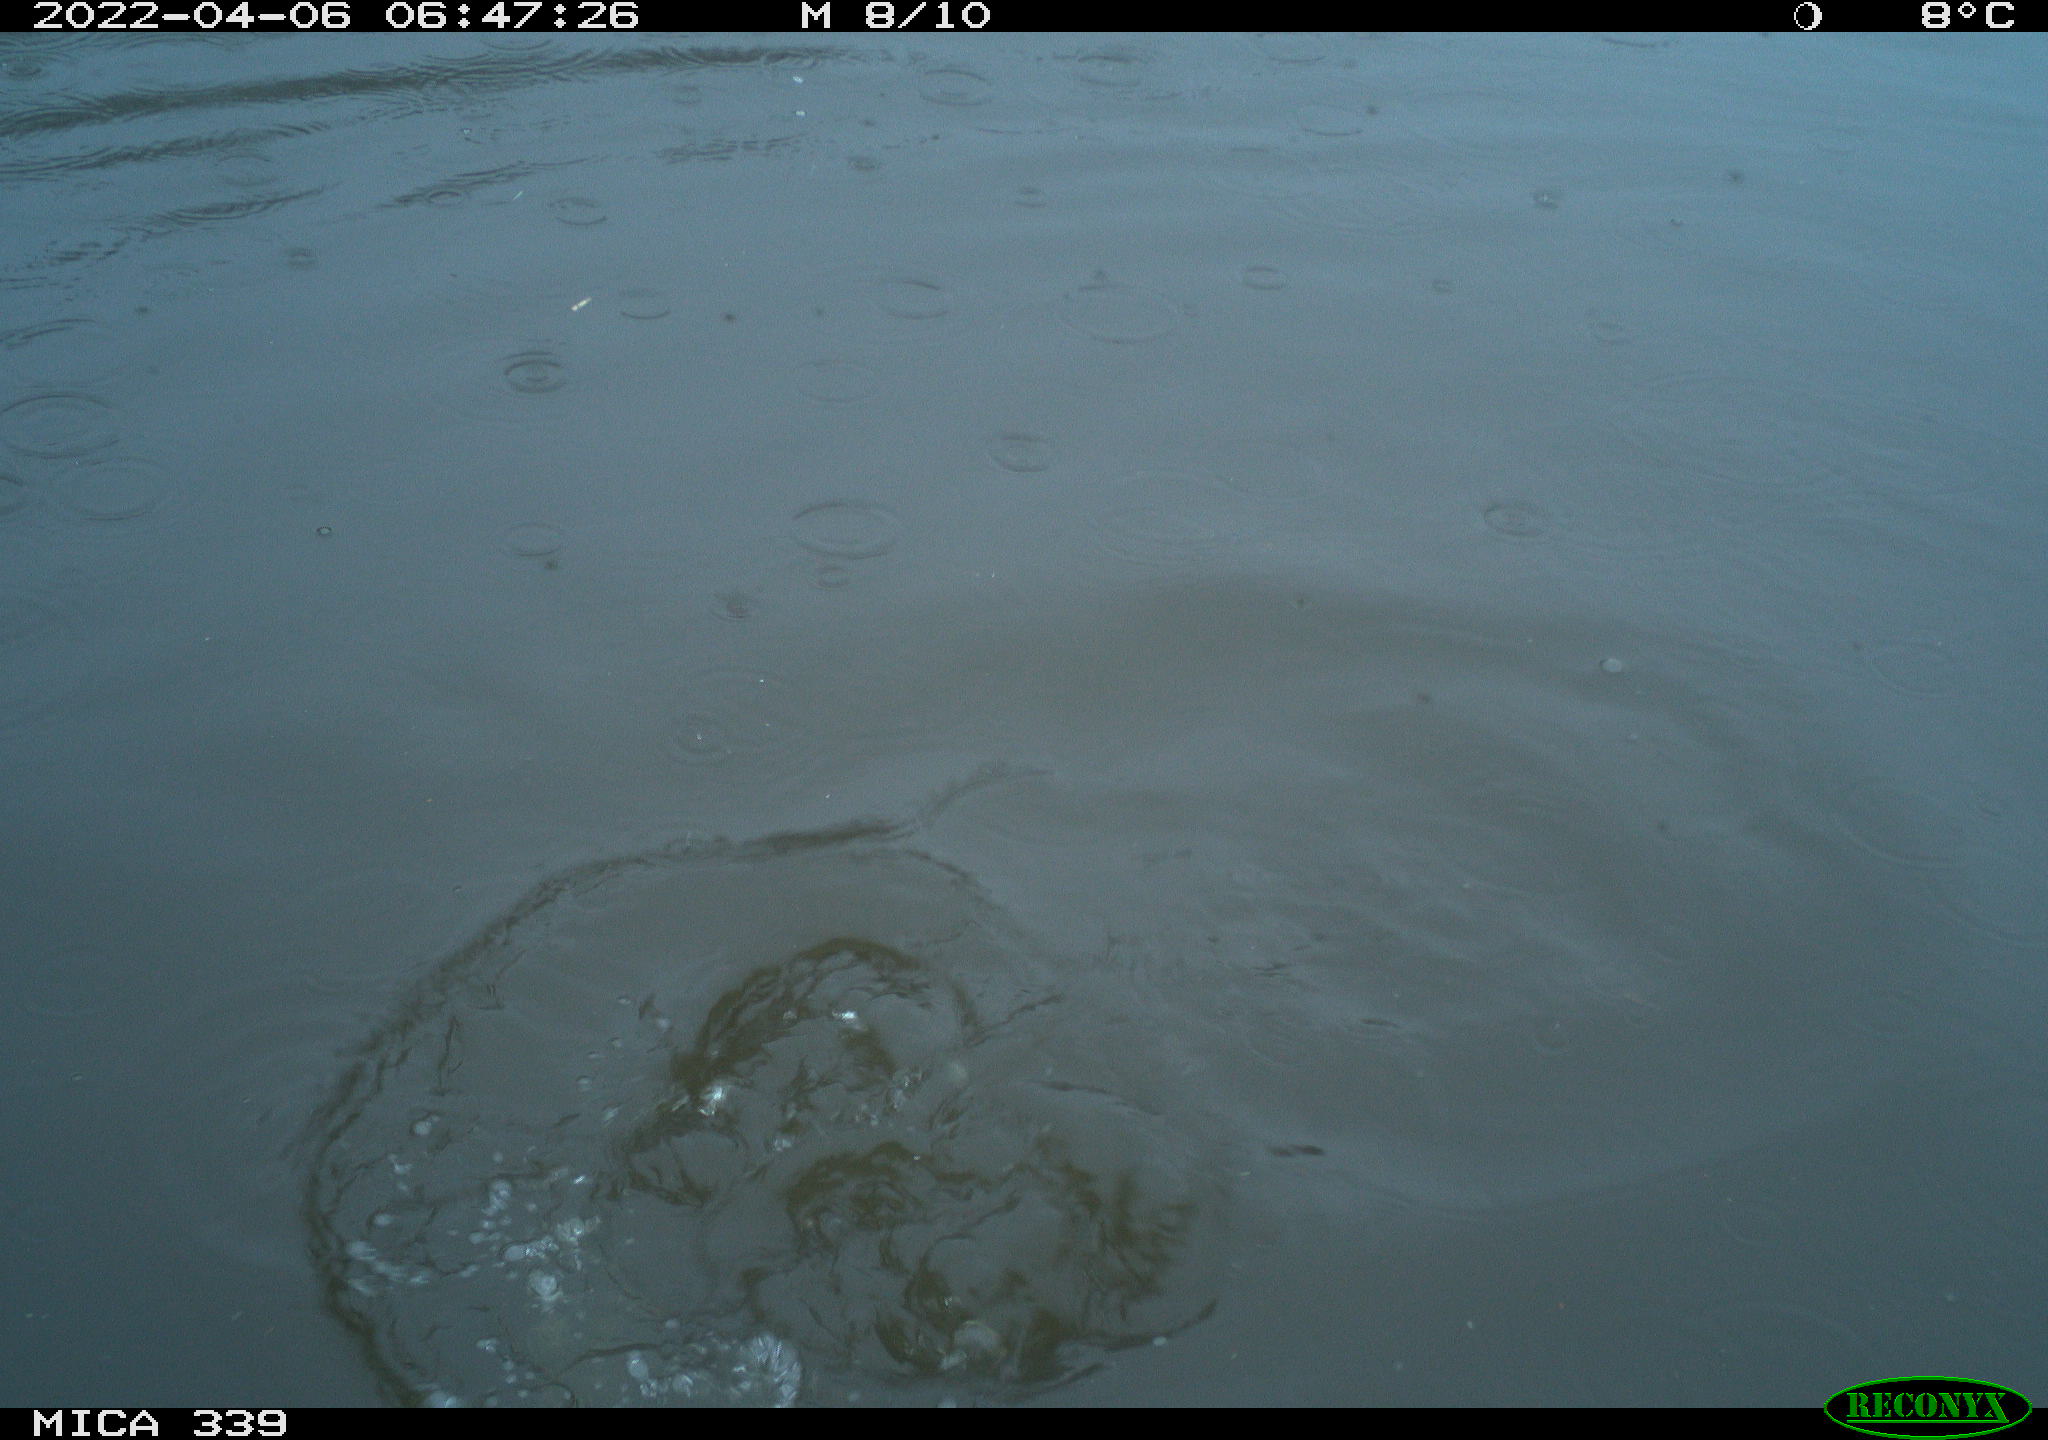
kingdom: Animalia
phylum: Chordata
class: Aves
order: Suliformes
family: Phalacrocoracidae
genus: Phalacrocorax
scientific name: Phalacrocorax carbo
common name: Great cormorant
